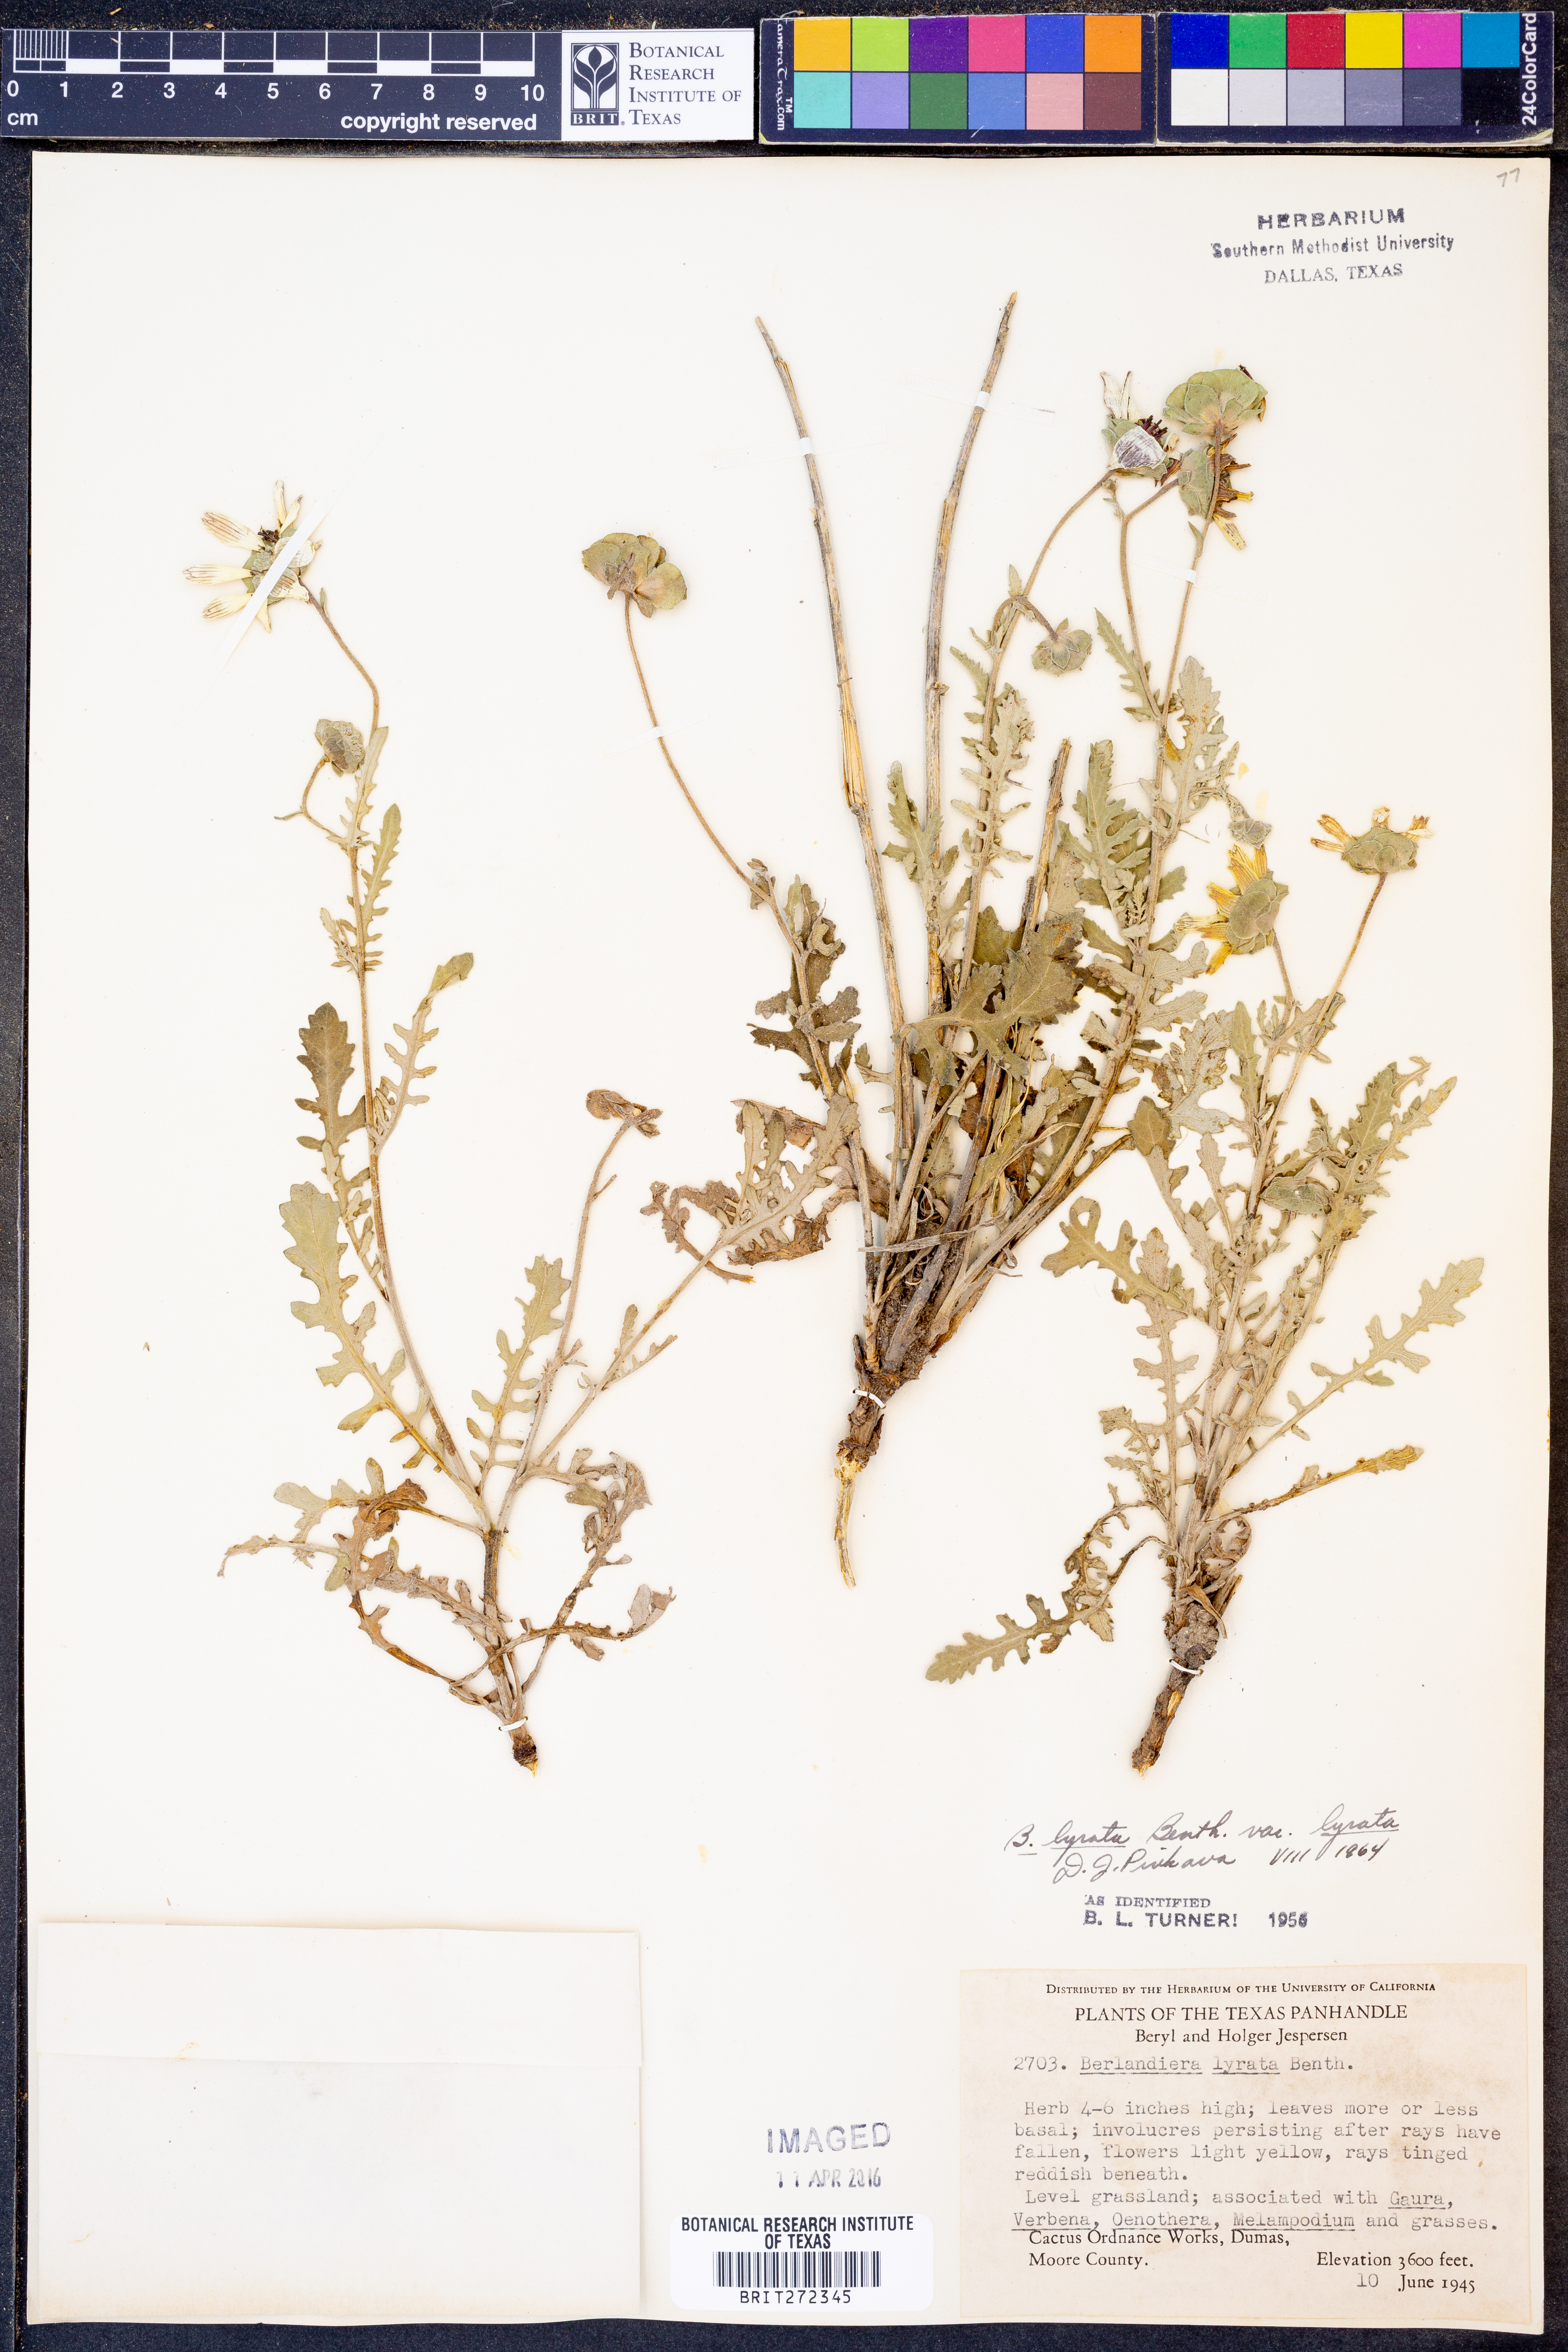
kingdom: Plantae
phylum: Tracheophyta
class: Magnoliopsida
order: Asterales
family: Asteraceae
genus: Berlandiera
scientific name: Berlandiera lyrata
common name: Chocolate-flower
